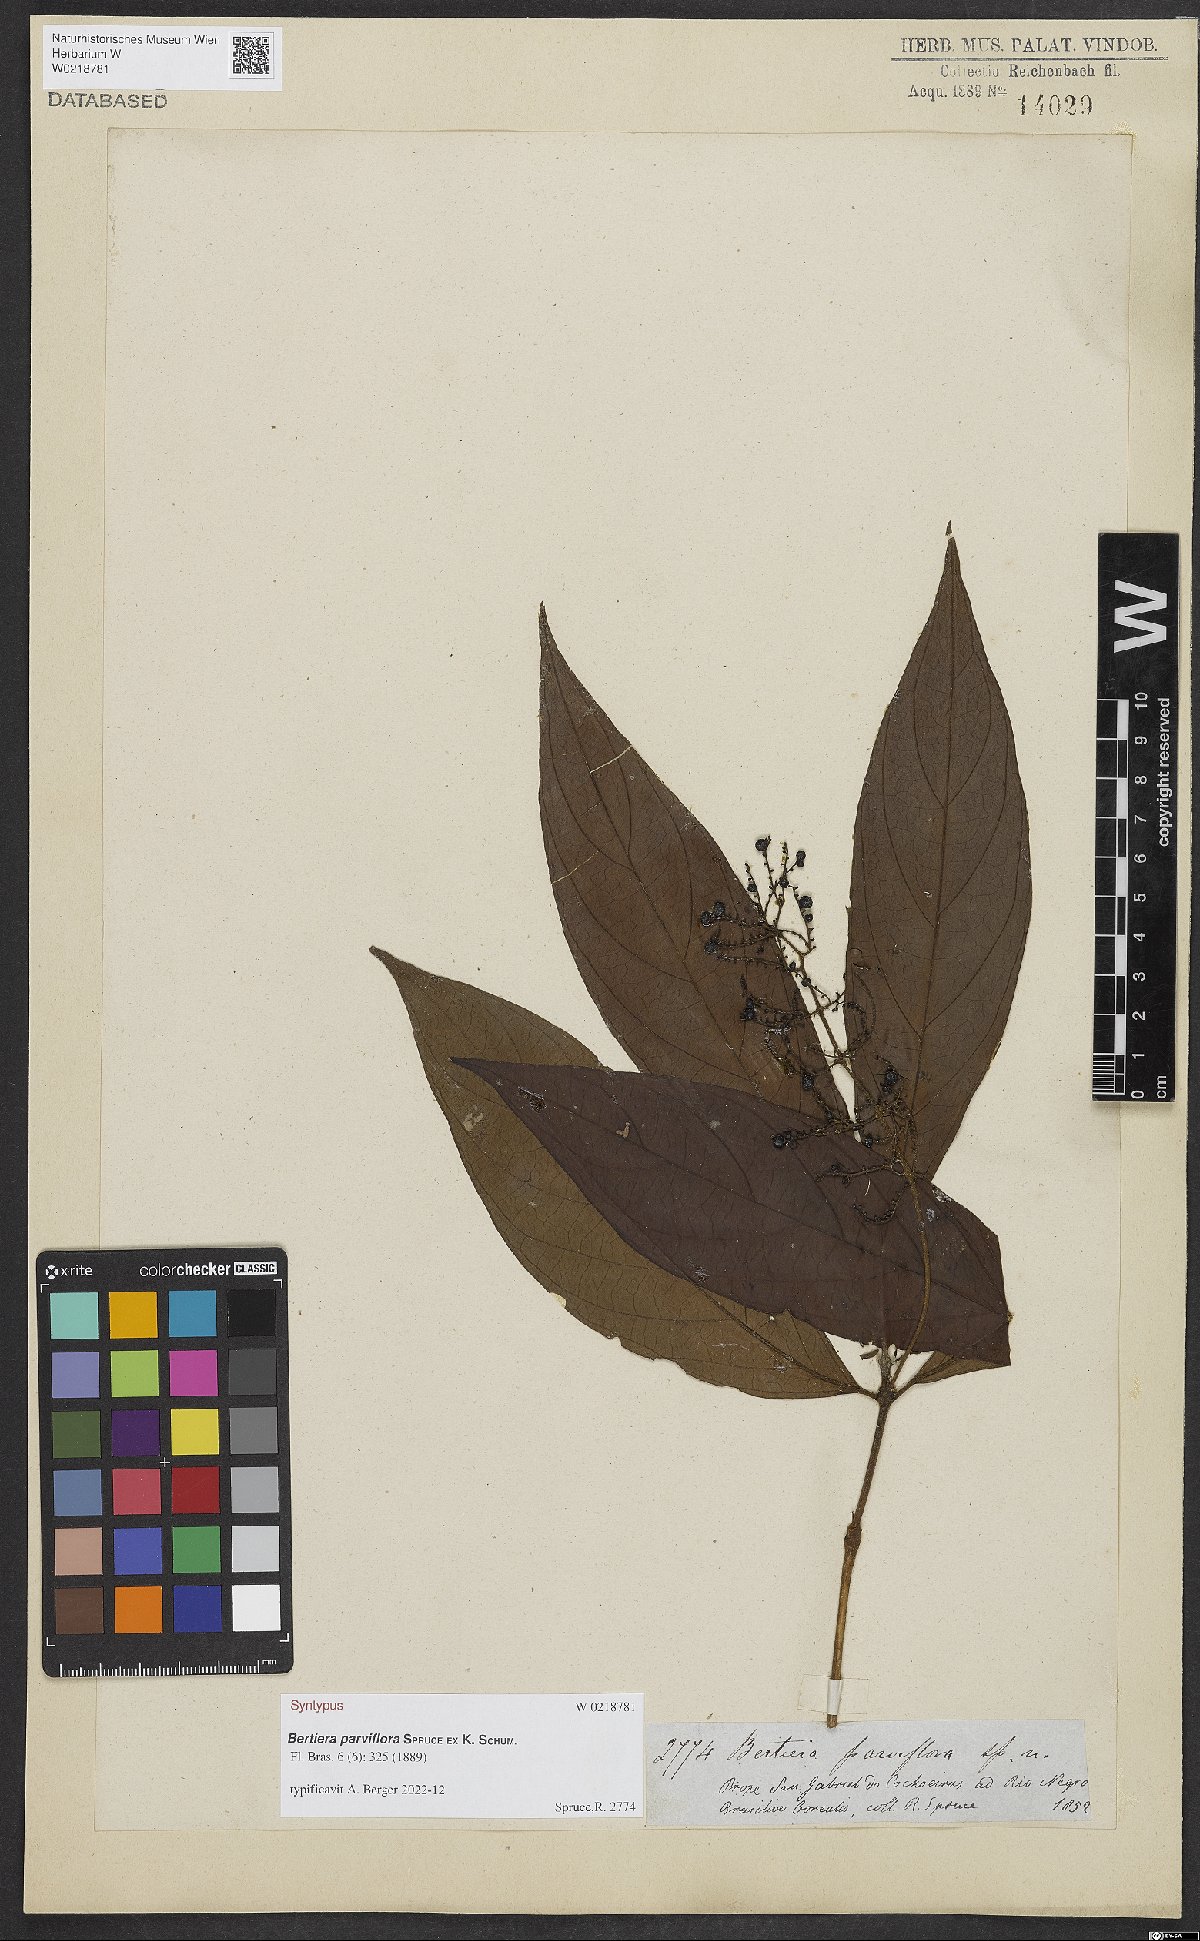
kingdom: Plantae
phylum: Tracheophyta
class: Magnoliopsida
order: Gentianales
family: Rubiaceae
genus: Bertiera
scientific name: Bertiera parviflora
